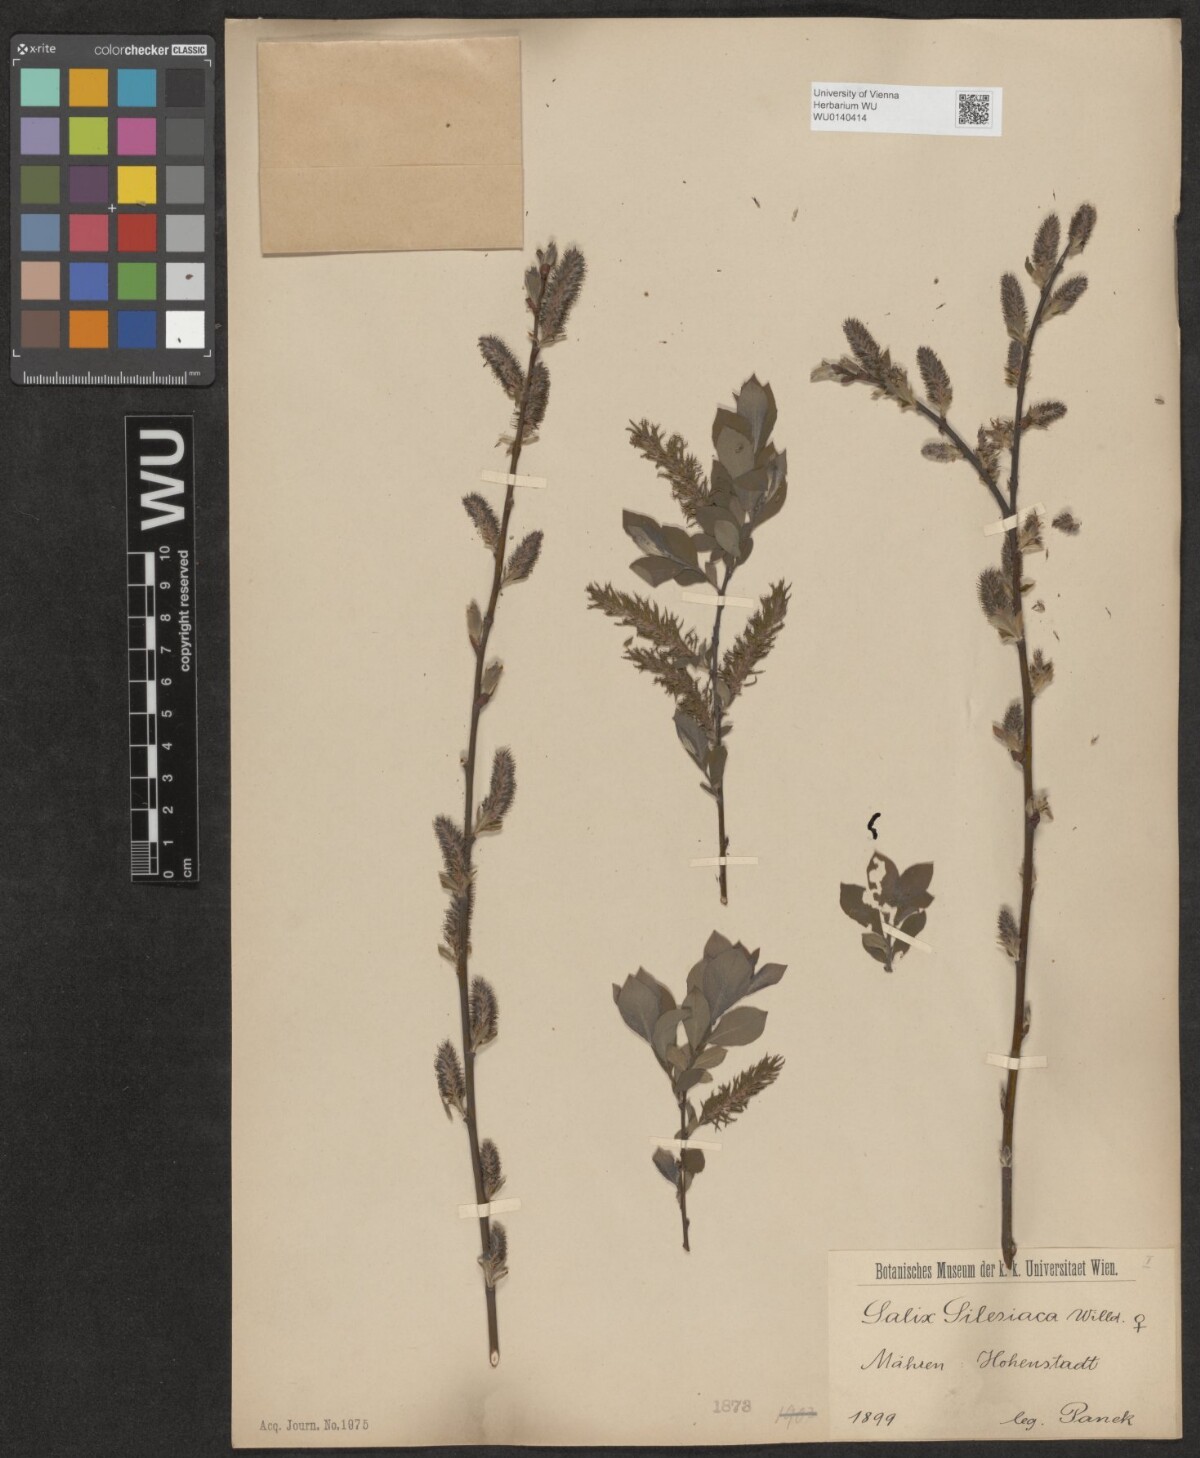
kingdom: Plantae
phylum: Tracheophyta
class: Magnoliopsida
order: Malpighiales
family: Salicaceae
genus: Salix
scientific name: Salix silesiaca
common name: Silesian willow
